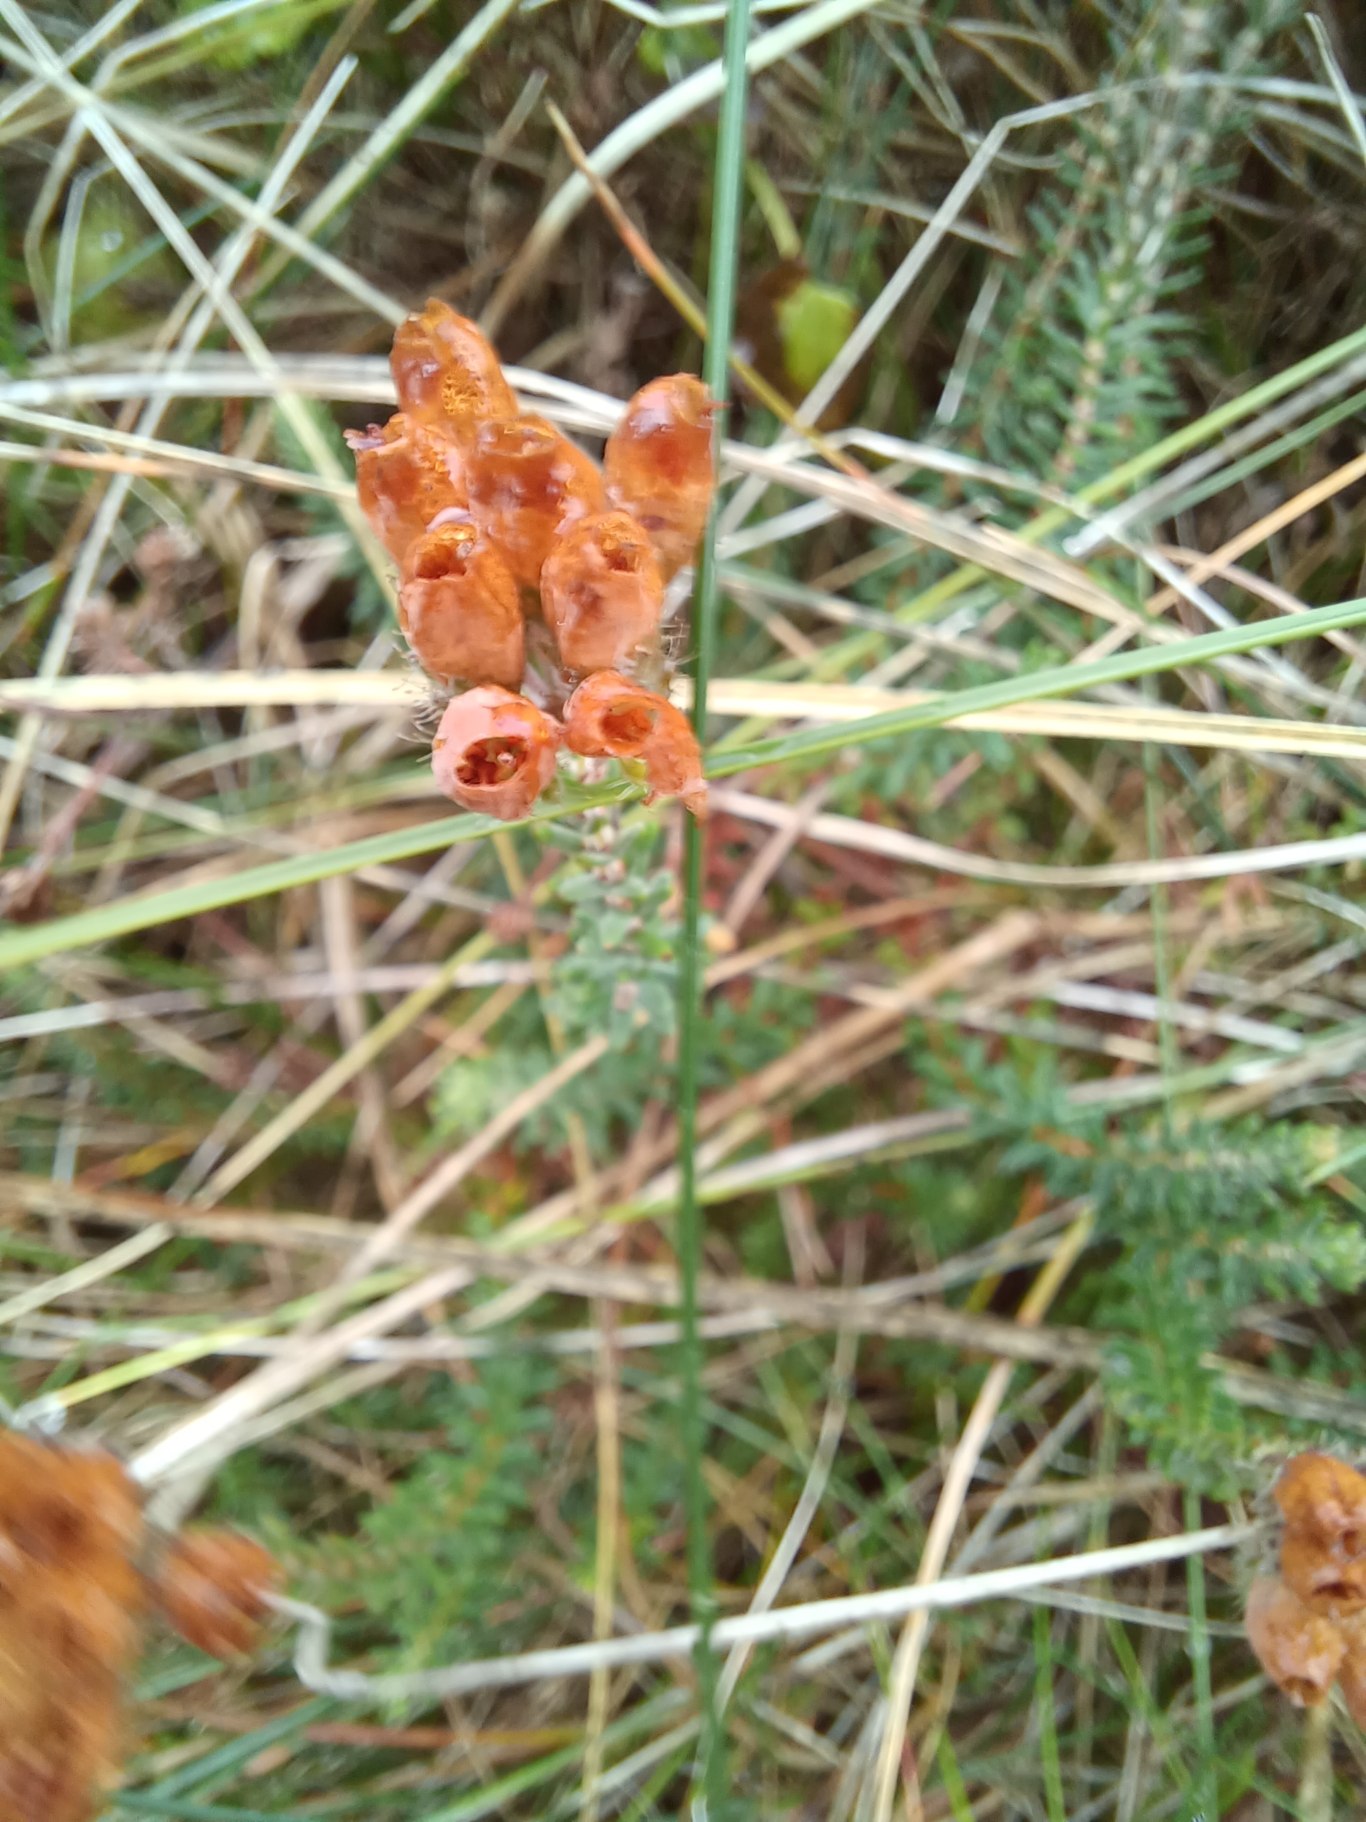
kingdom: Plantae
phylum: Tracheophyta
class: Magnoliopsida
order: Ericales
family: Ericaceae
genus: Erica
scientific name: Erica tetralix
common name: Klokkelyng
